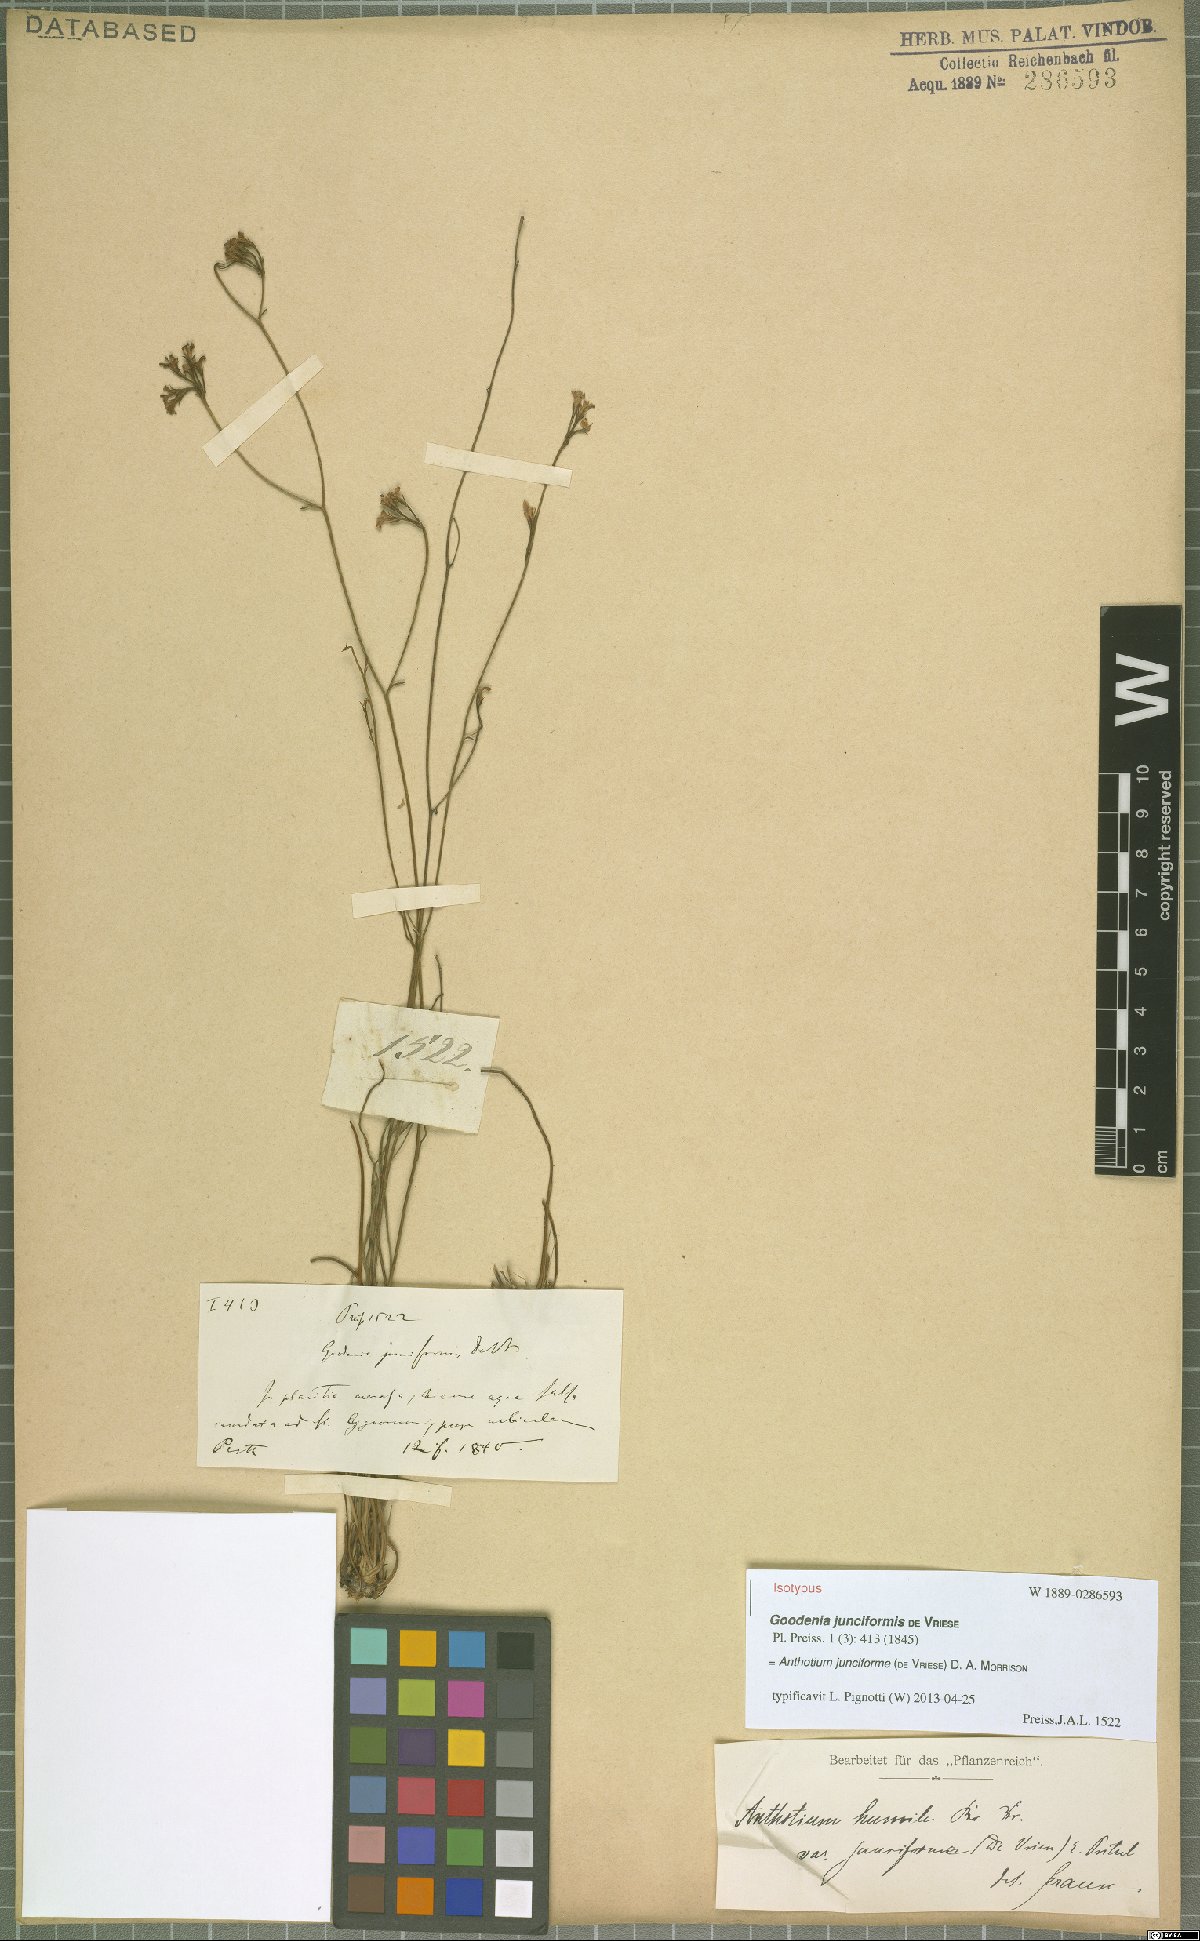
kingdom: Plantae
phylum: Tracheophyta
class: Magnoliopsida
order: Asterales
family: Goodeniaceae
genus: Anthotium
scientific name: Anthotium junciforme
